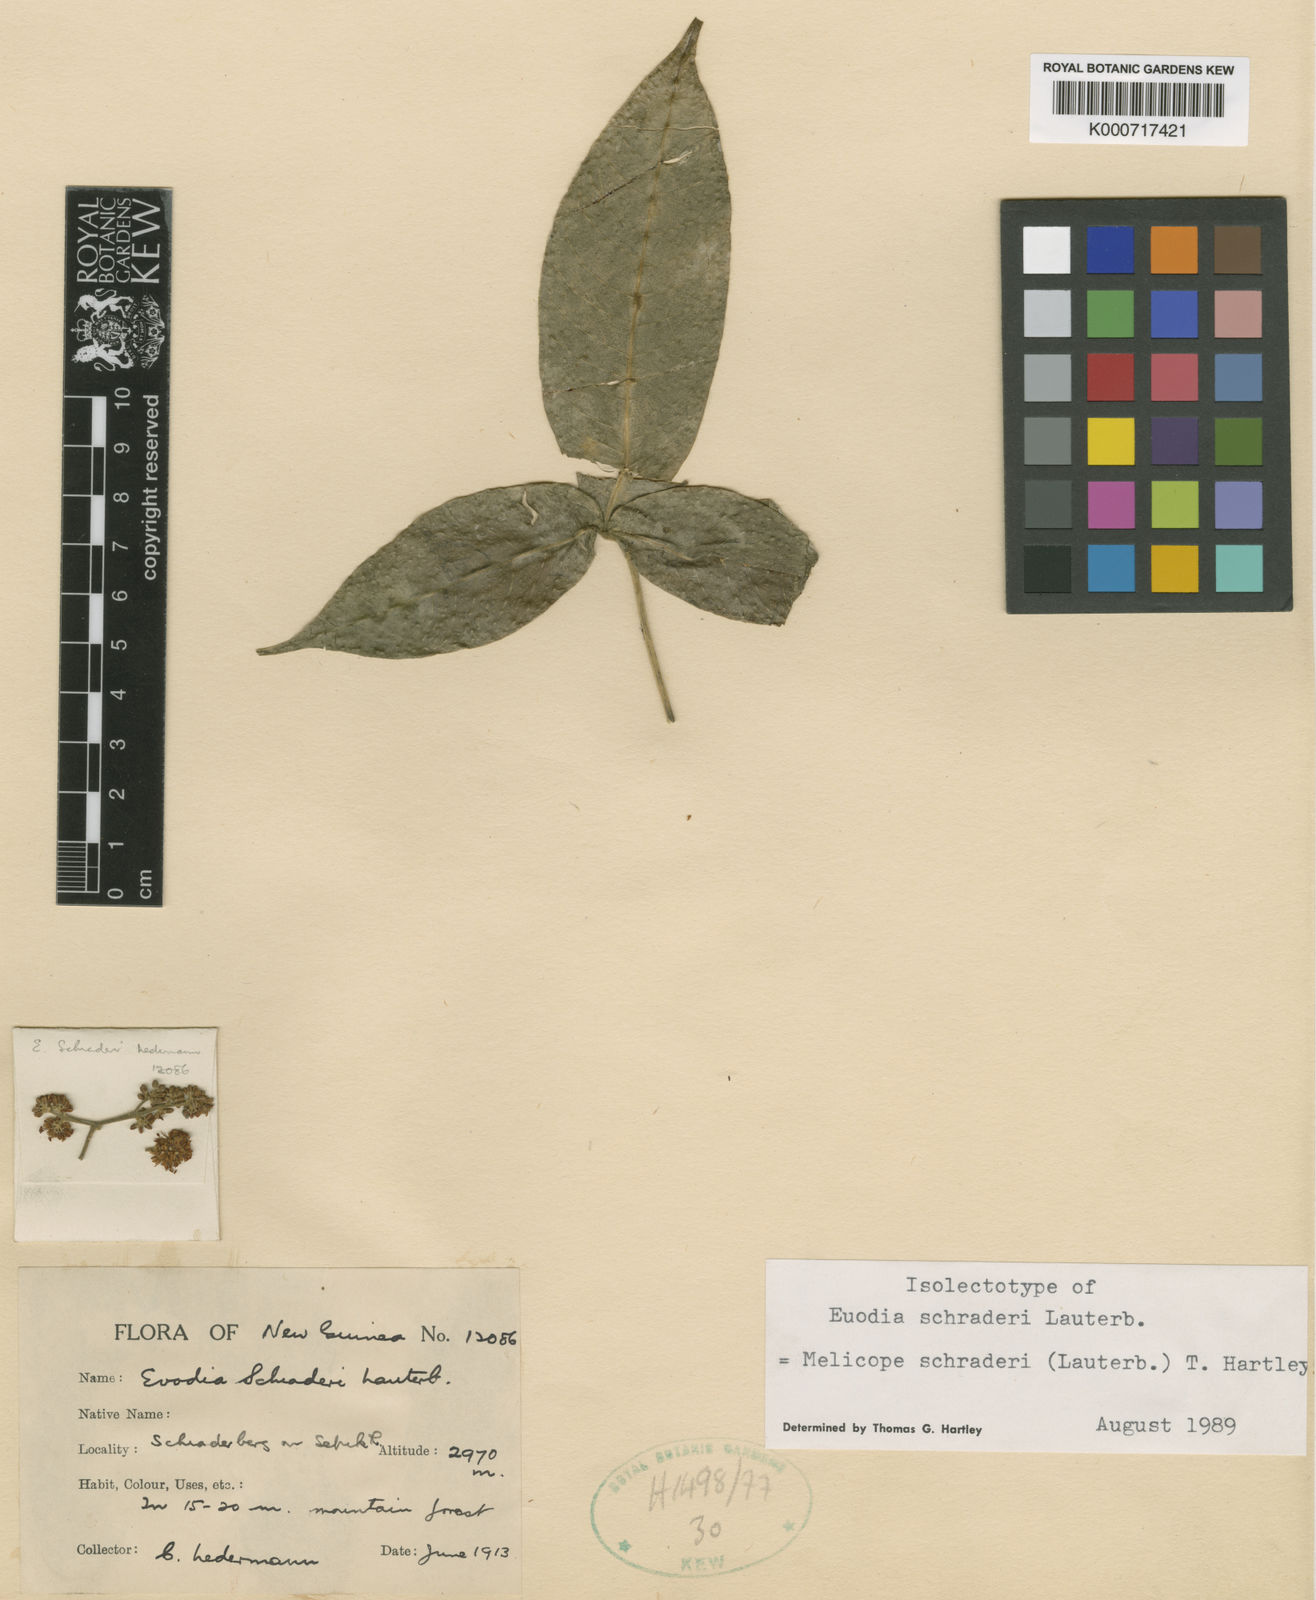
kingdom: Plantae
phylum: Tracheophyta
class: Magnoliopsida
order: Sapindales
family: Rutaceae
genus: Melicope
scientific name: Melicope schraderi
